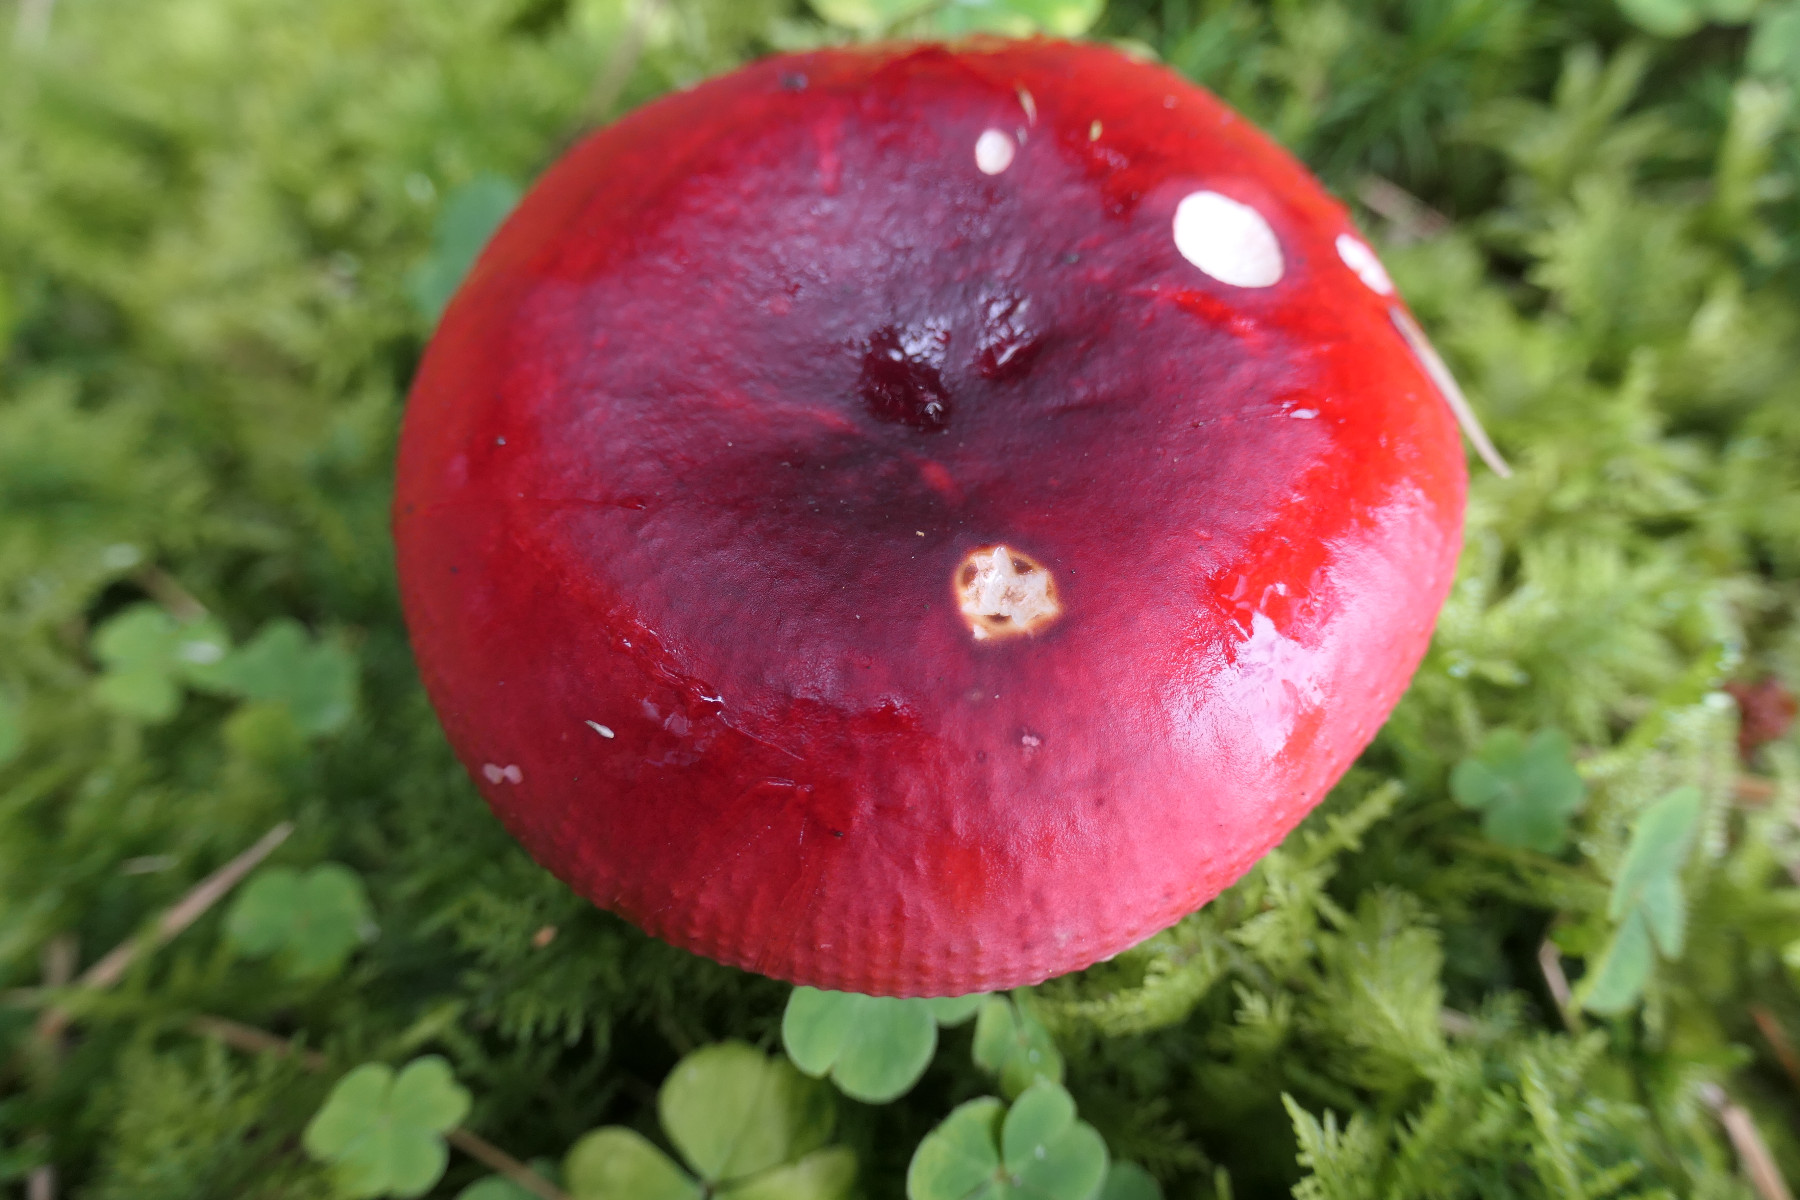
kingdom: Fungi
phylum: Basidiomycota
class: Agaricomycetes
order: Russulales
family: Russulaceae
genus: Russula
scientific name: Russula xerampelina
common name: hummer-skørhat
